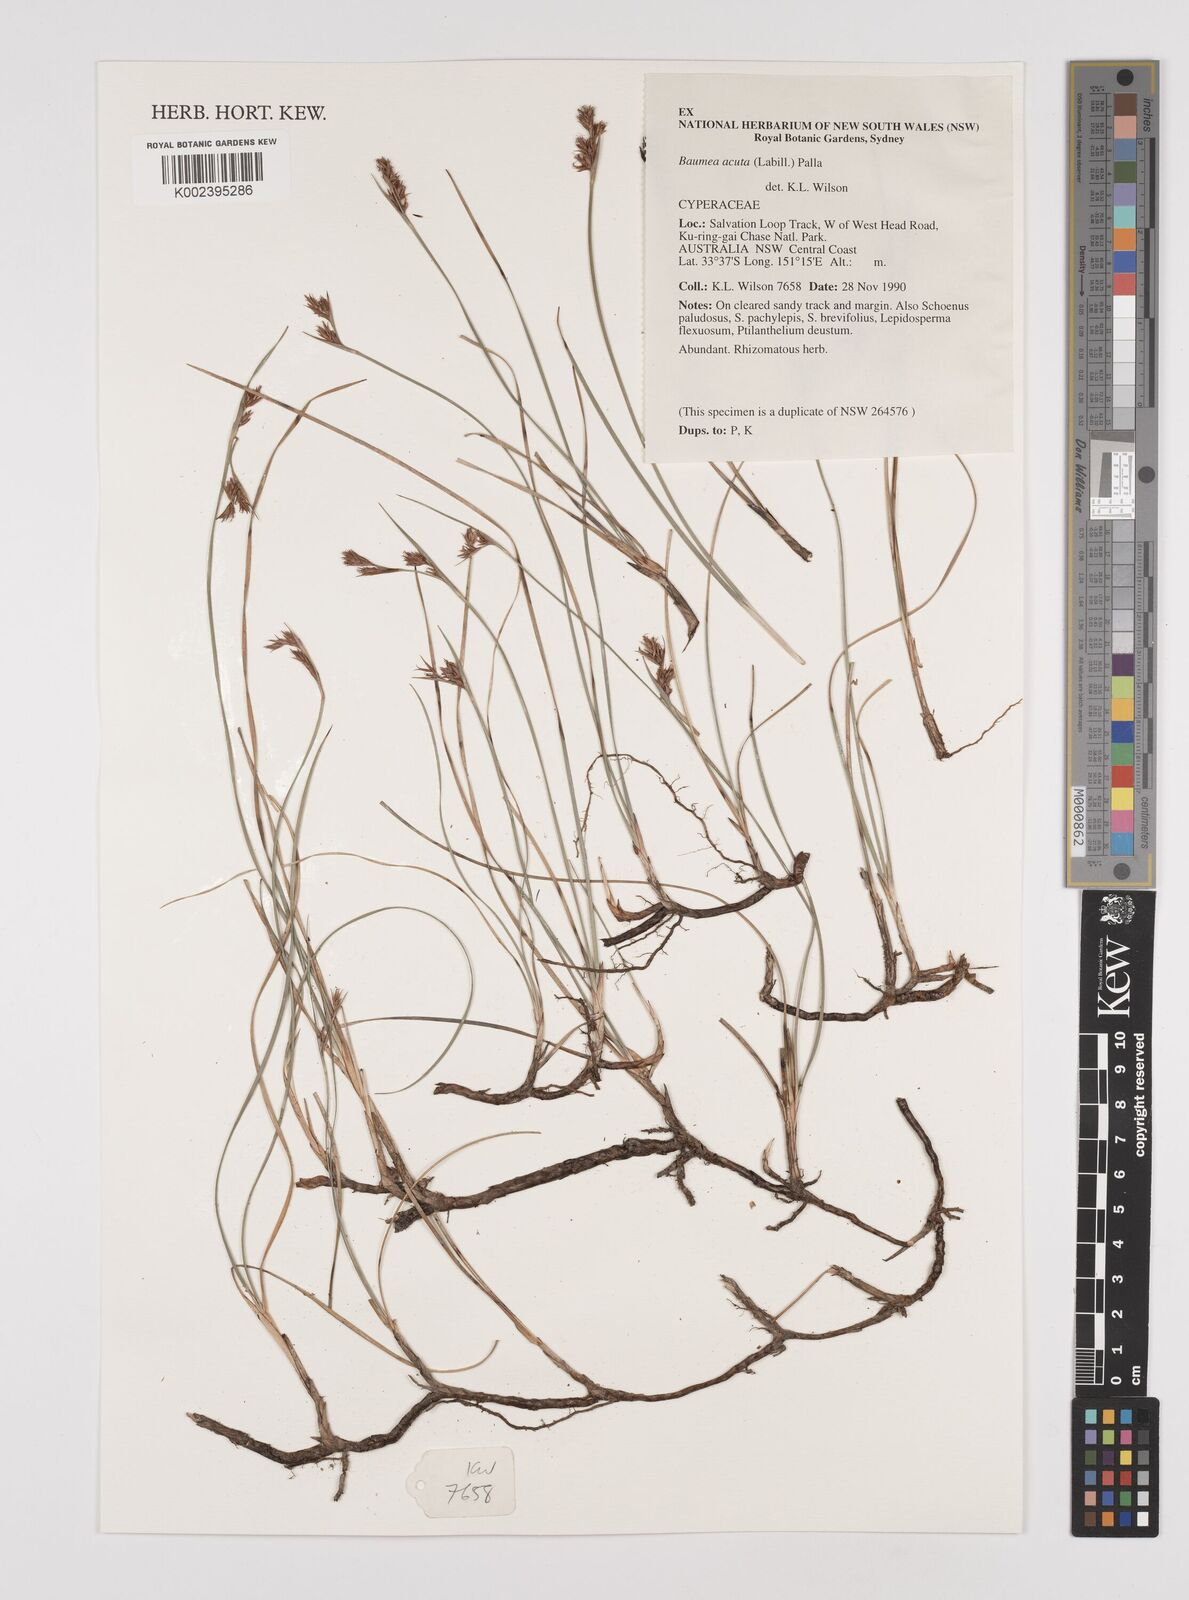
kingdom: Plantae
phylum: Tracheophyta
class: Liliopsida
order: Poales
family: Cyperaceae
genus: Machaerina
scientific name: Machaerina acuta
